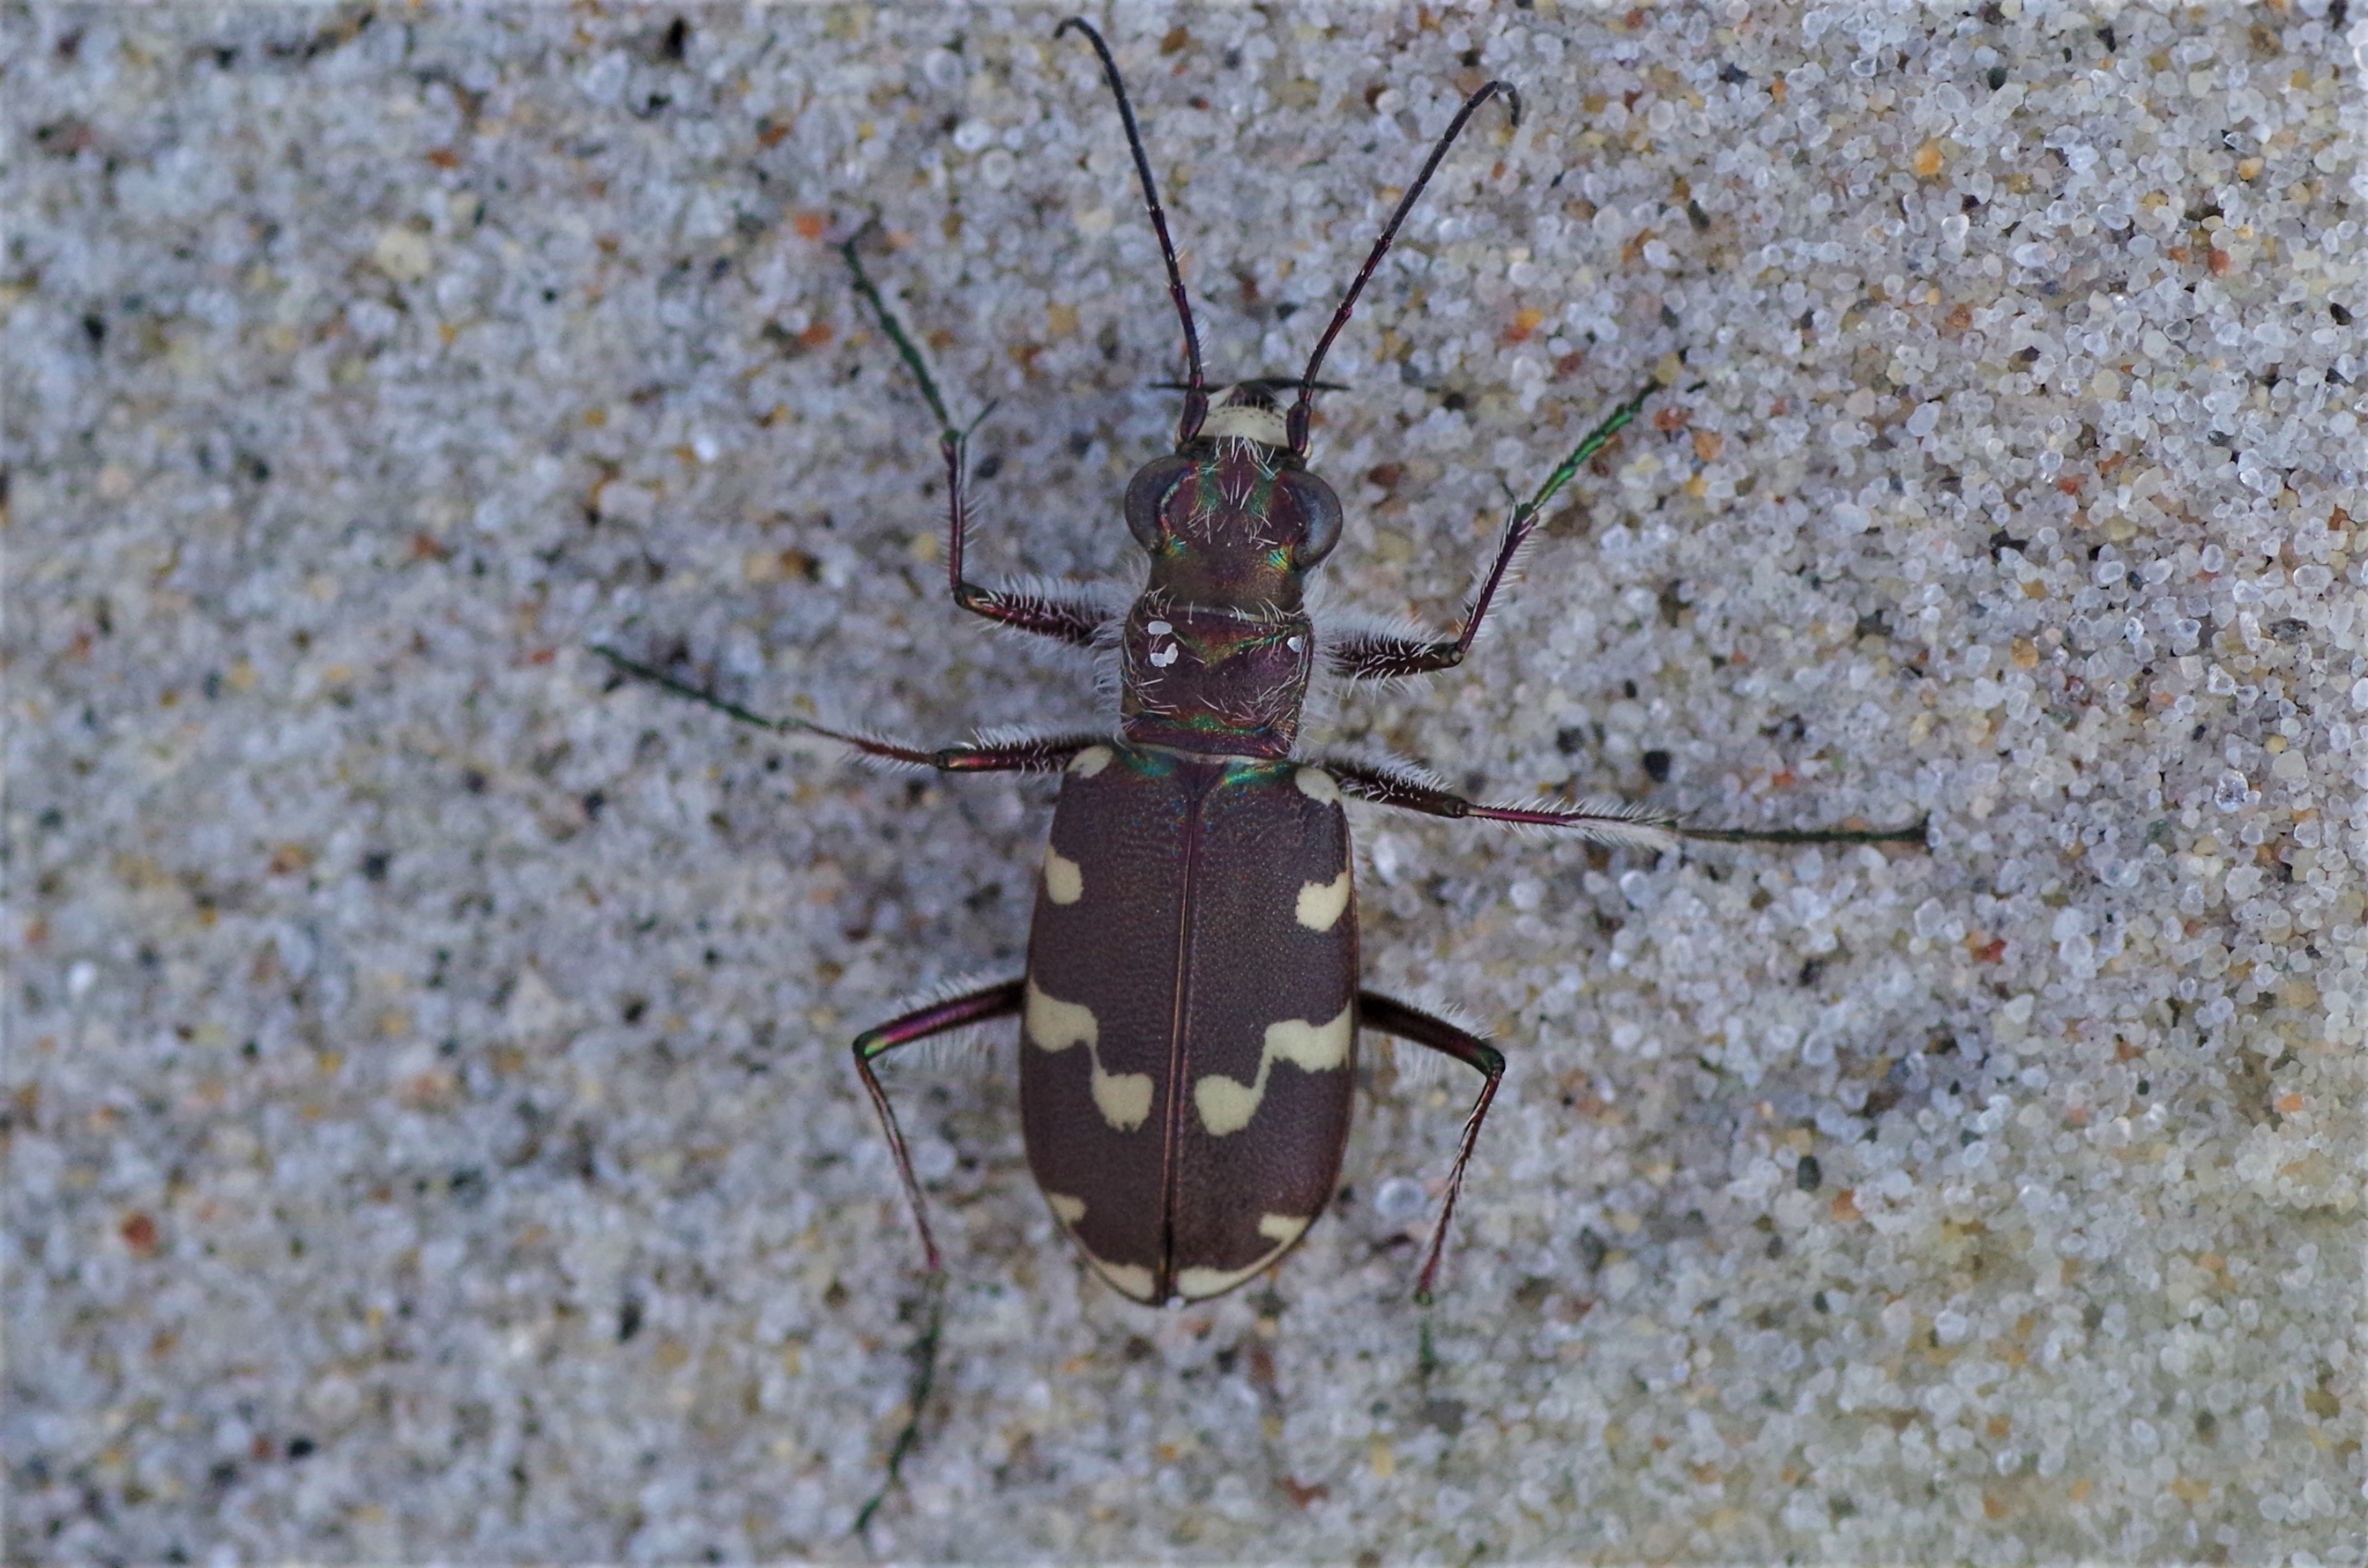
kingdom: Animalia
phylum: Arthropoda
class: Insecta
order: Coleoptera
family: Carabidae
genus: Cicindela
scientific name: Cicindela maritima
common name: Klitsandspringer
